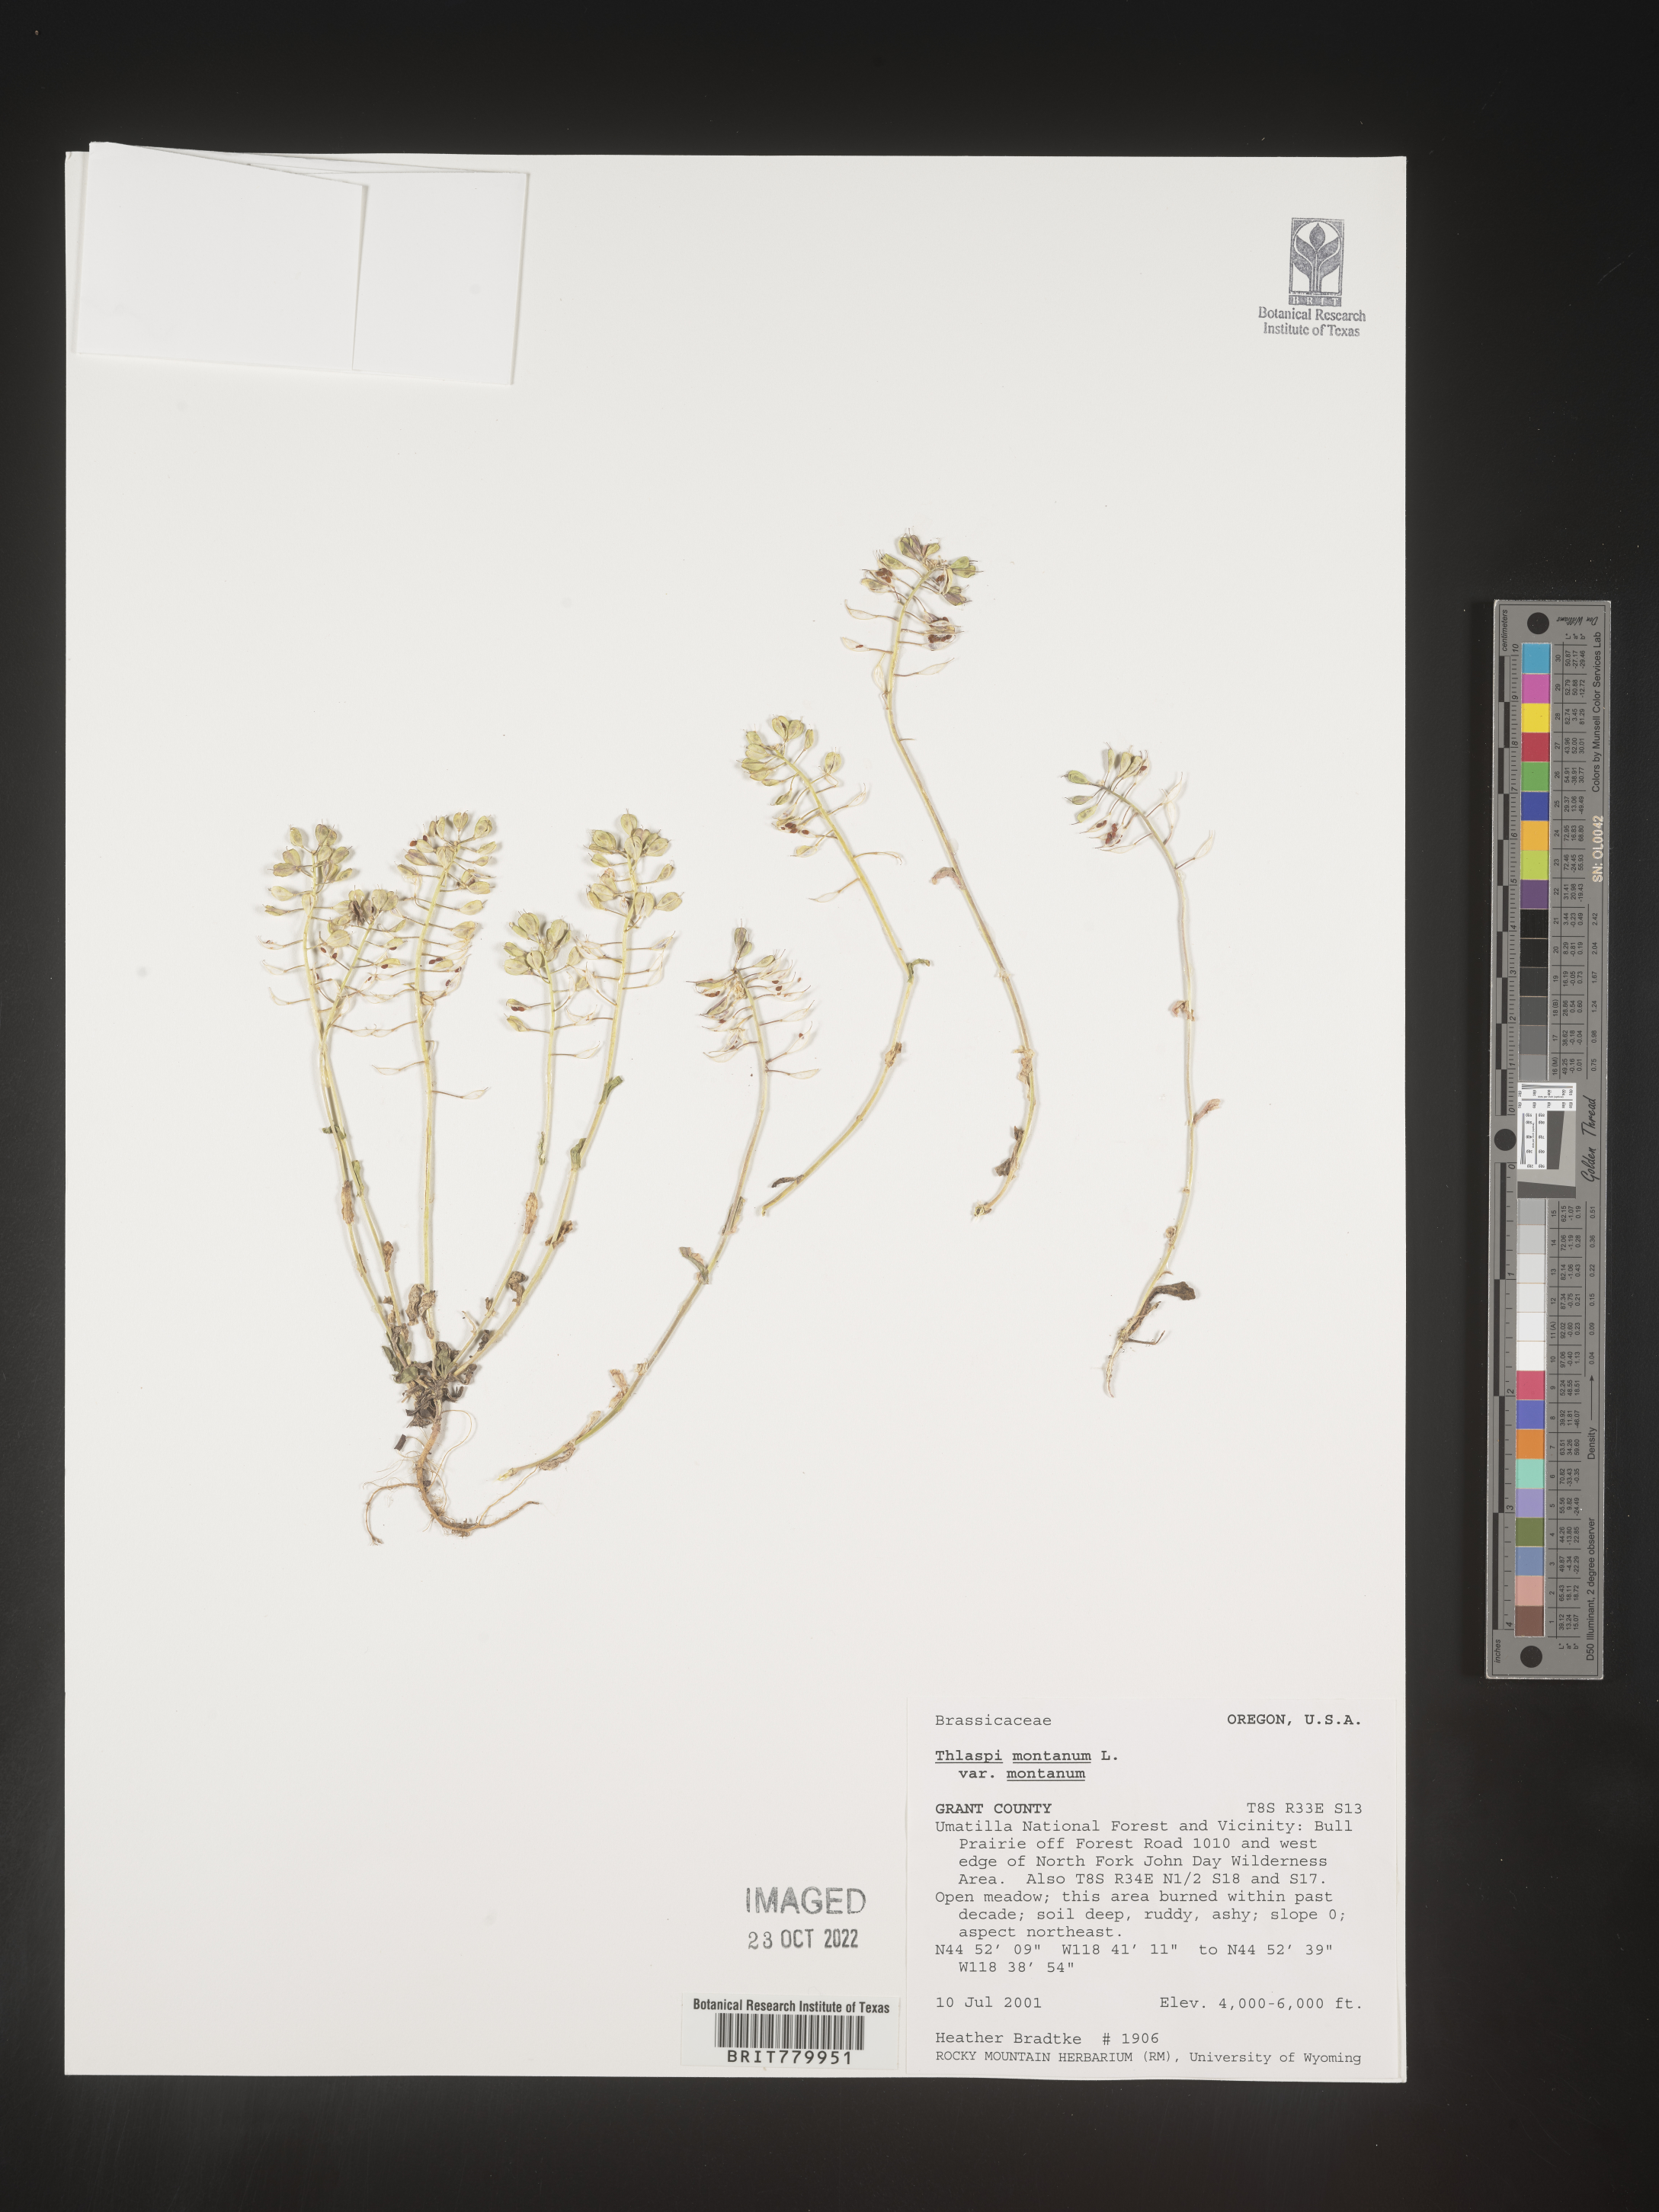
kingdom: Plantae
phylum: Tracheophyta
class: Magnoliopsida
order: Brassicales
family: Brassicaceae
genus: Thlaspi
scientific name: Thlaspi
